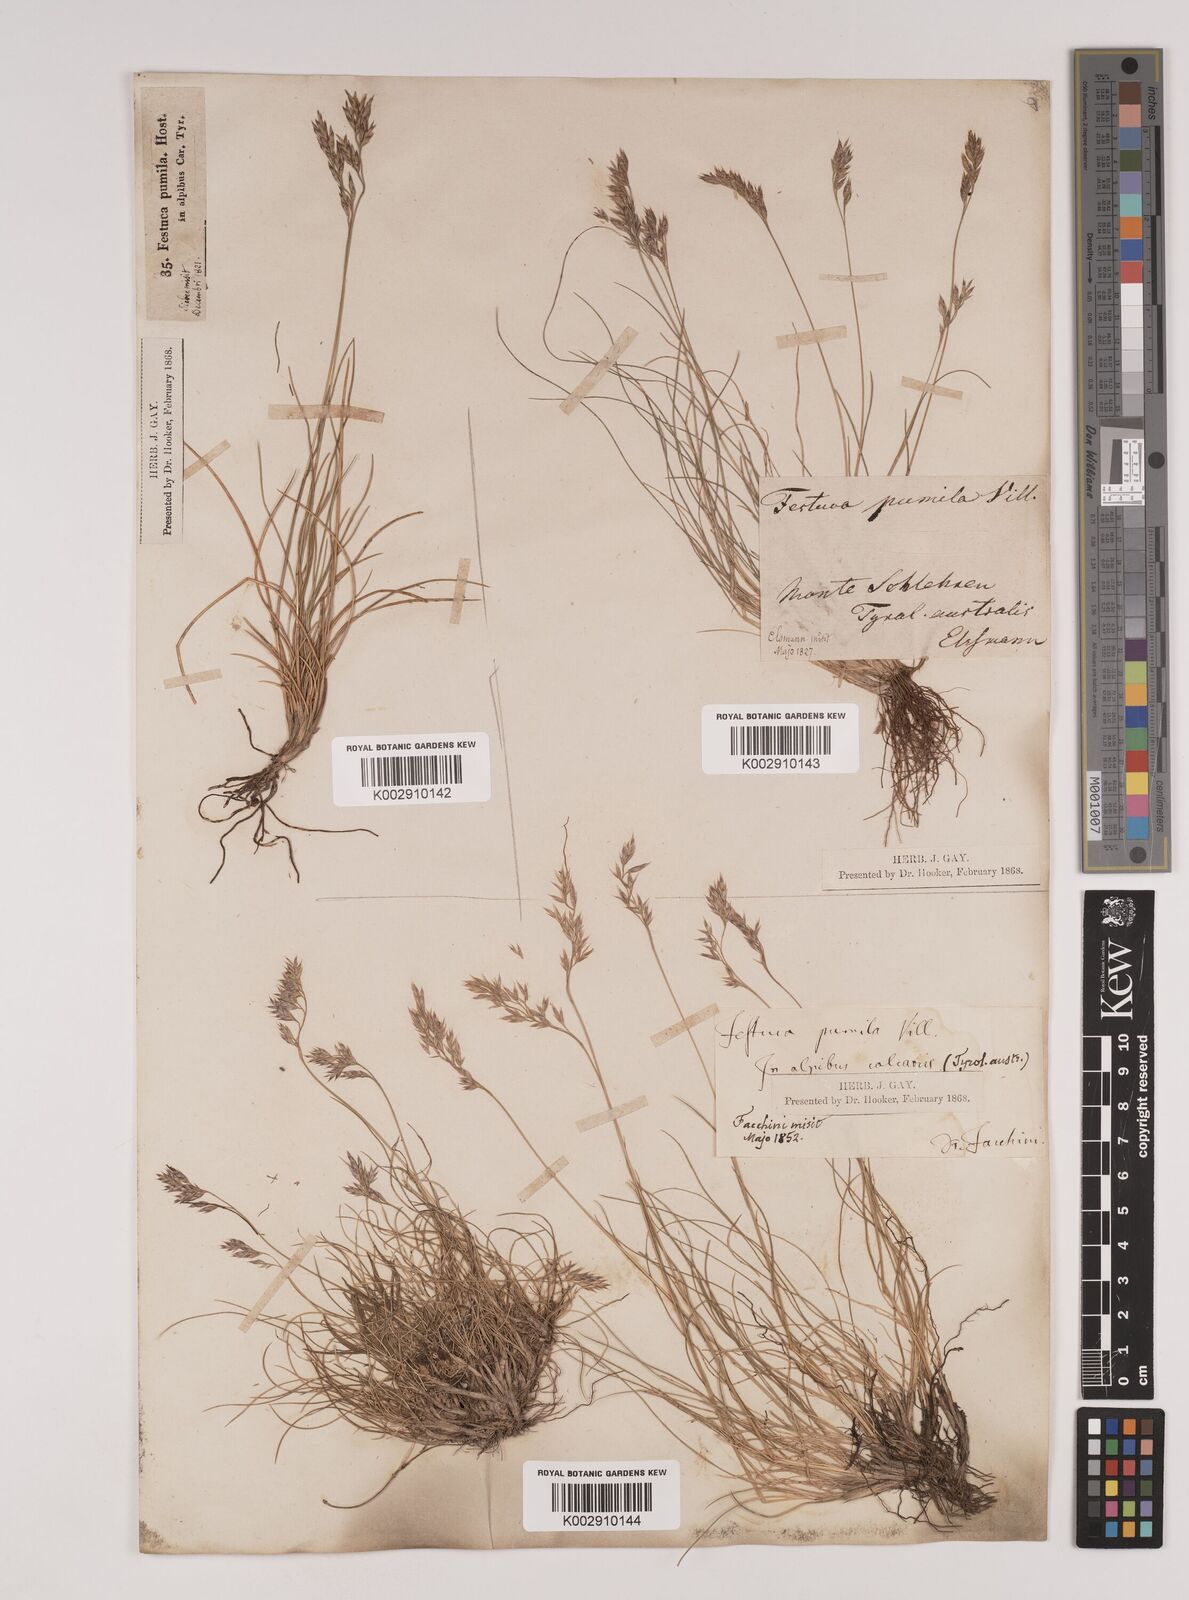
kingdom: Plantae
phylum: Tracheophyta
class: Liliopsida
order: Poales
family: Poaceae
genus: Festuca
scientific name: Festuca
